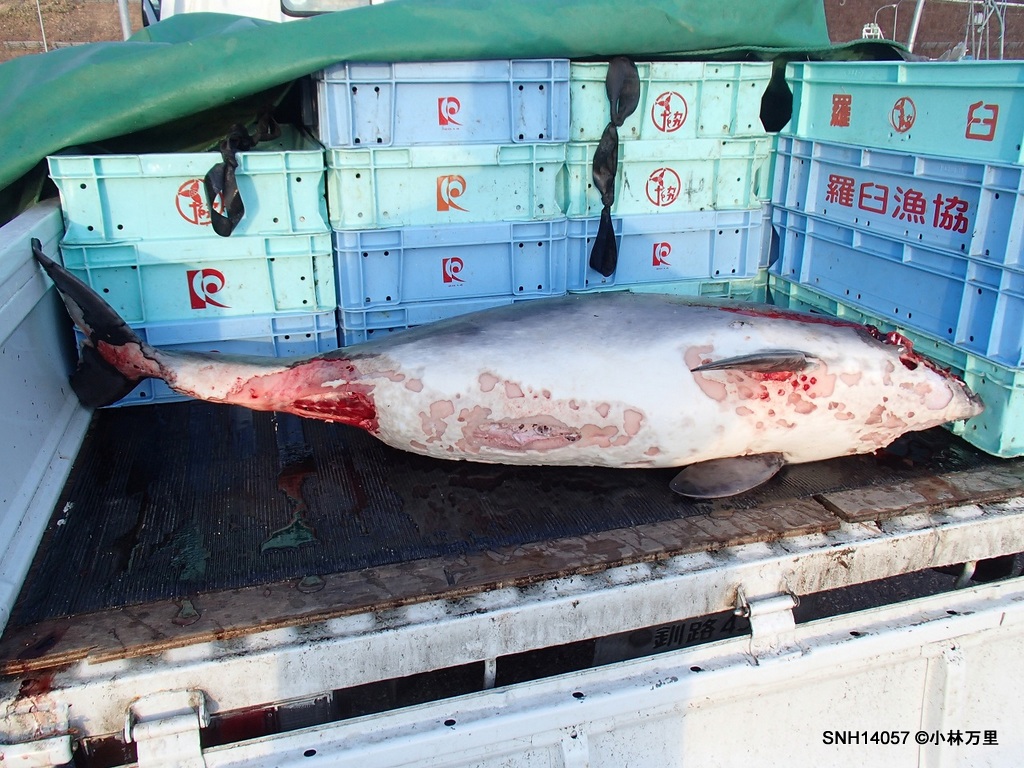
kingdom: Animalia
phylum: Chordata
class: Mammalia
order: Cetacea
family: Phocoenidae
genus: Phocoena
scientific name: Phocoena phocoena
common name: Harbour porpoise
